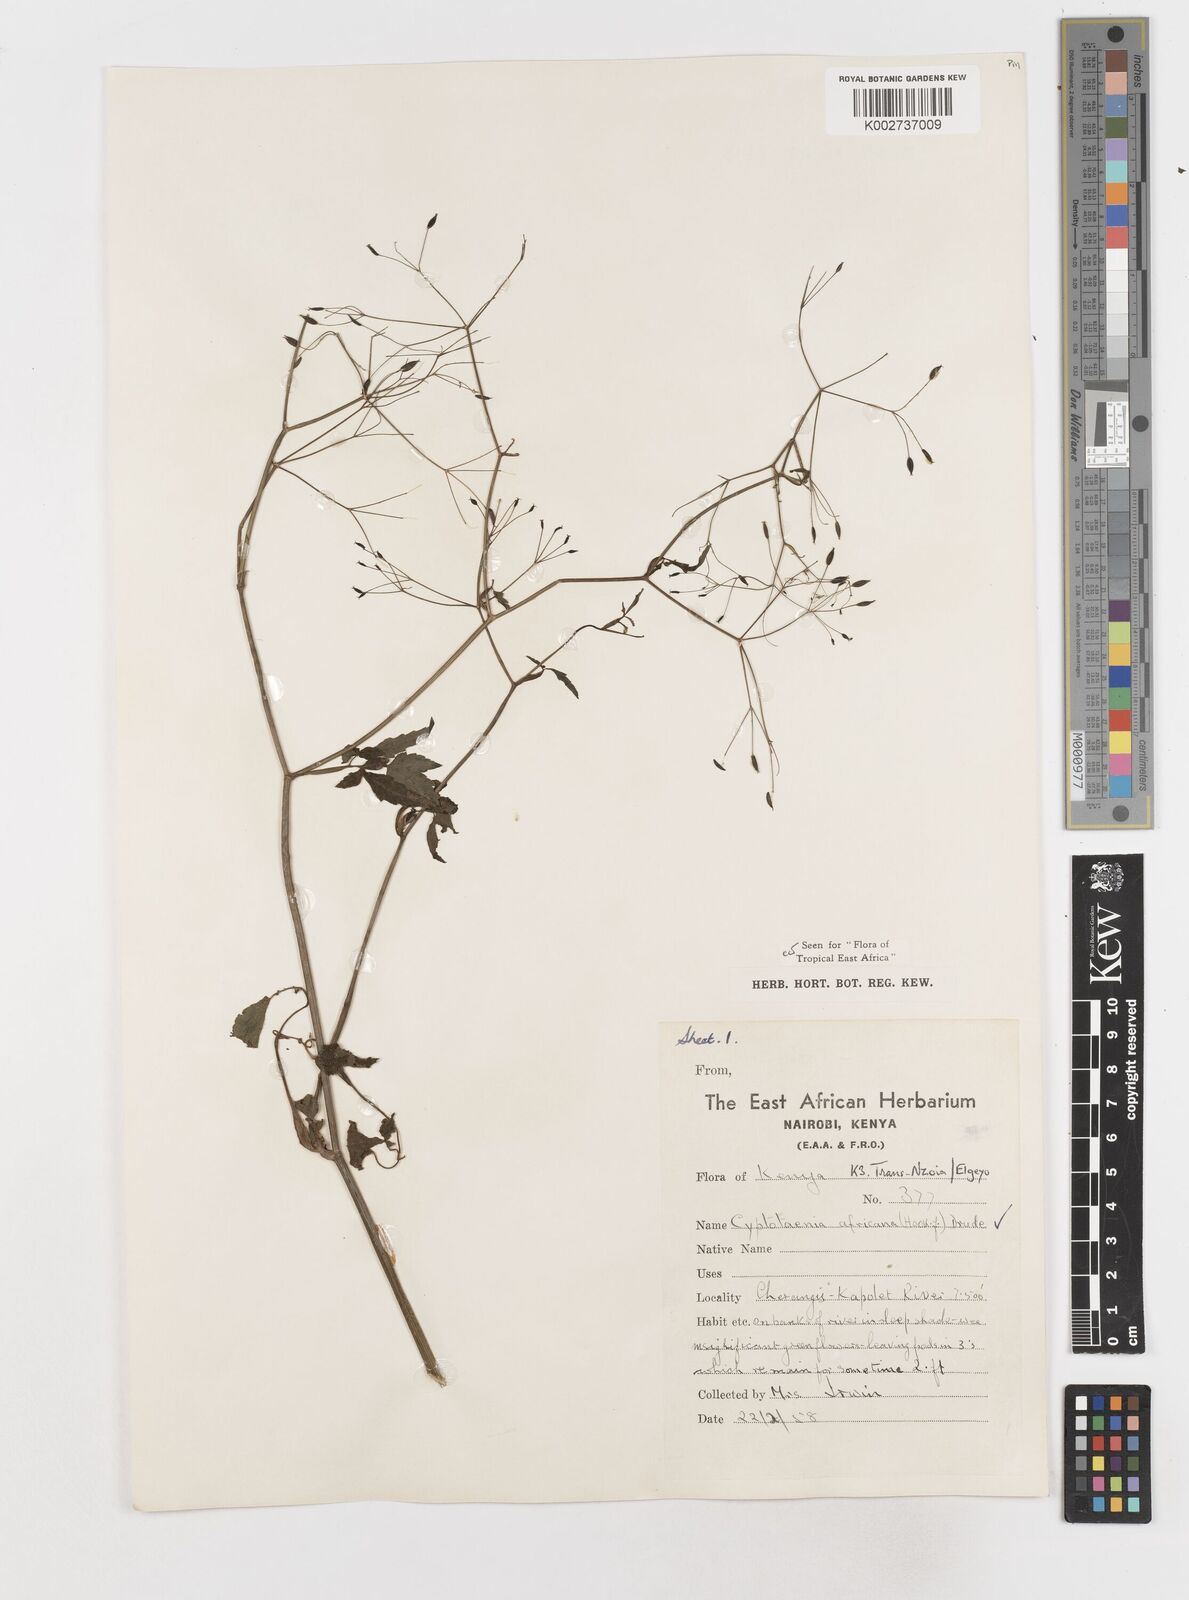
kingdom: Plantae
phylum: Tracheophyta
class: Magnoliopsida
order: Apiales
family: Apiaceae
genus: Cryptotaenia
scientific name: Cryptotaenia africana
